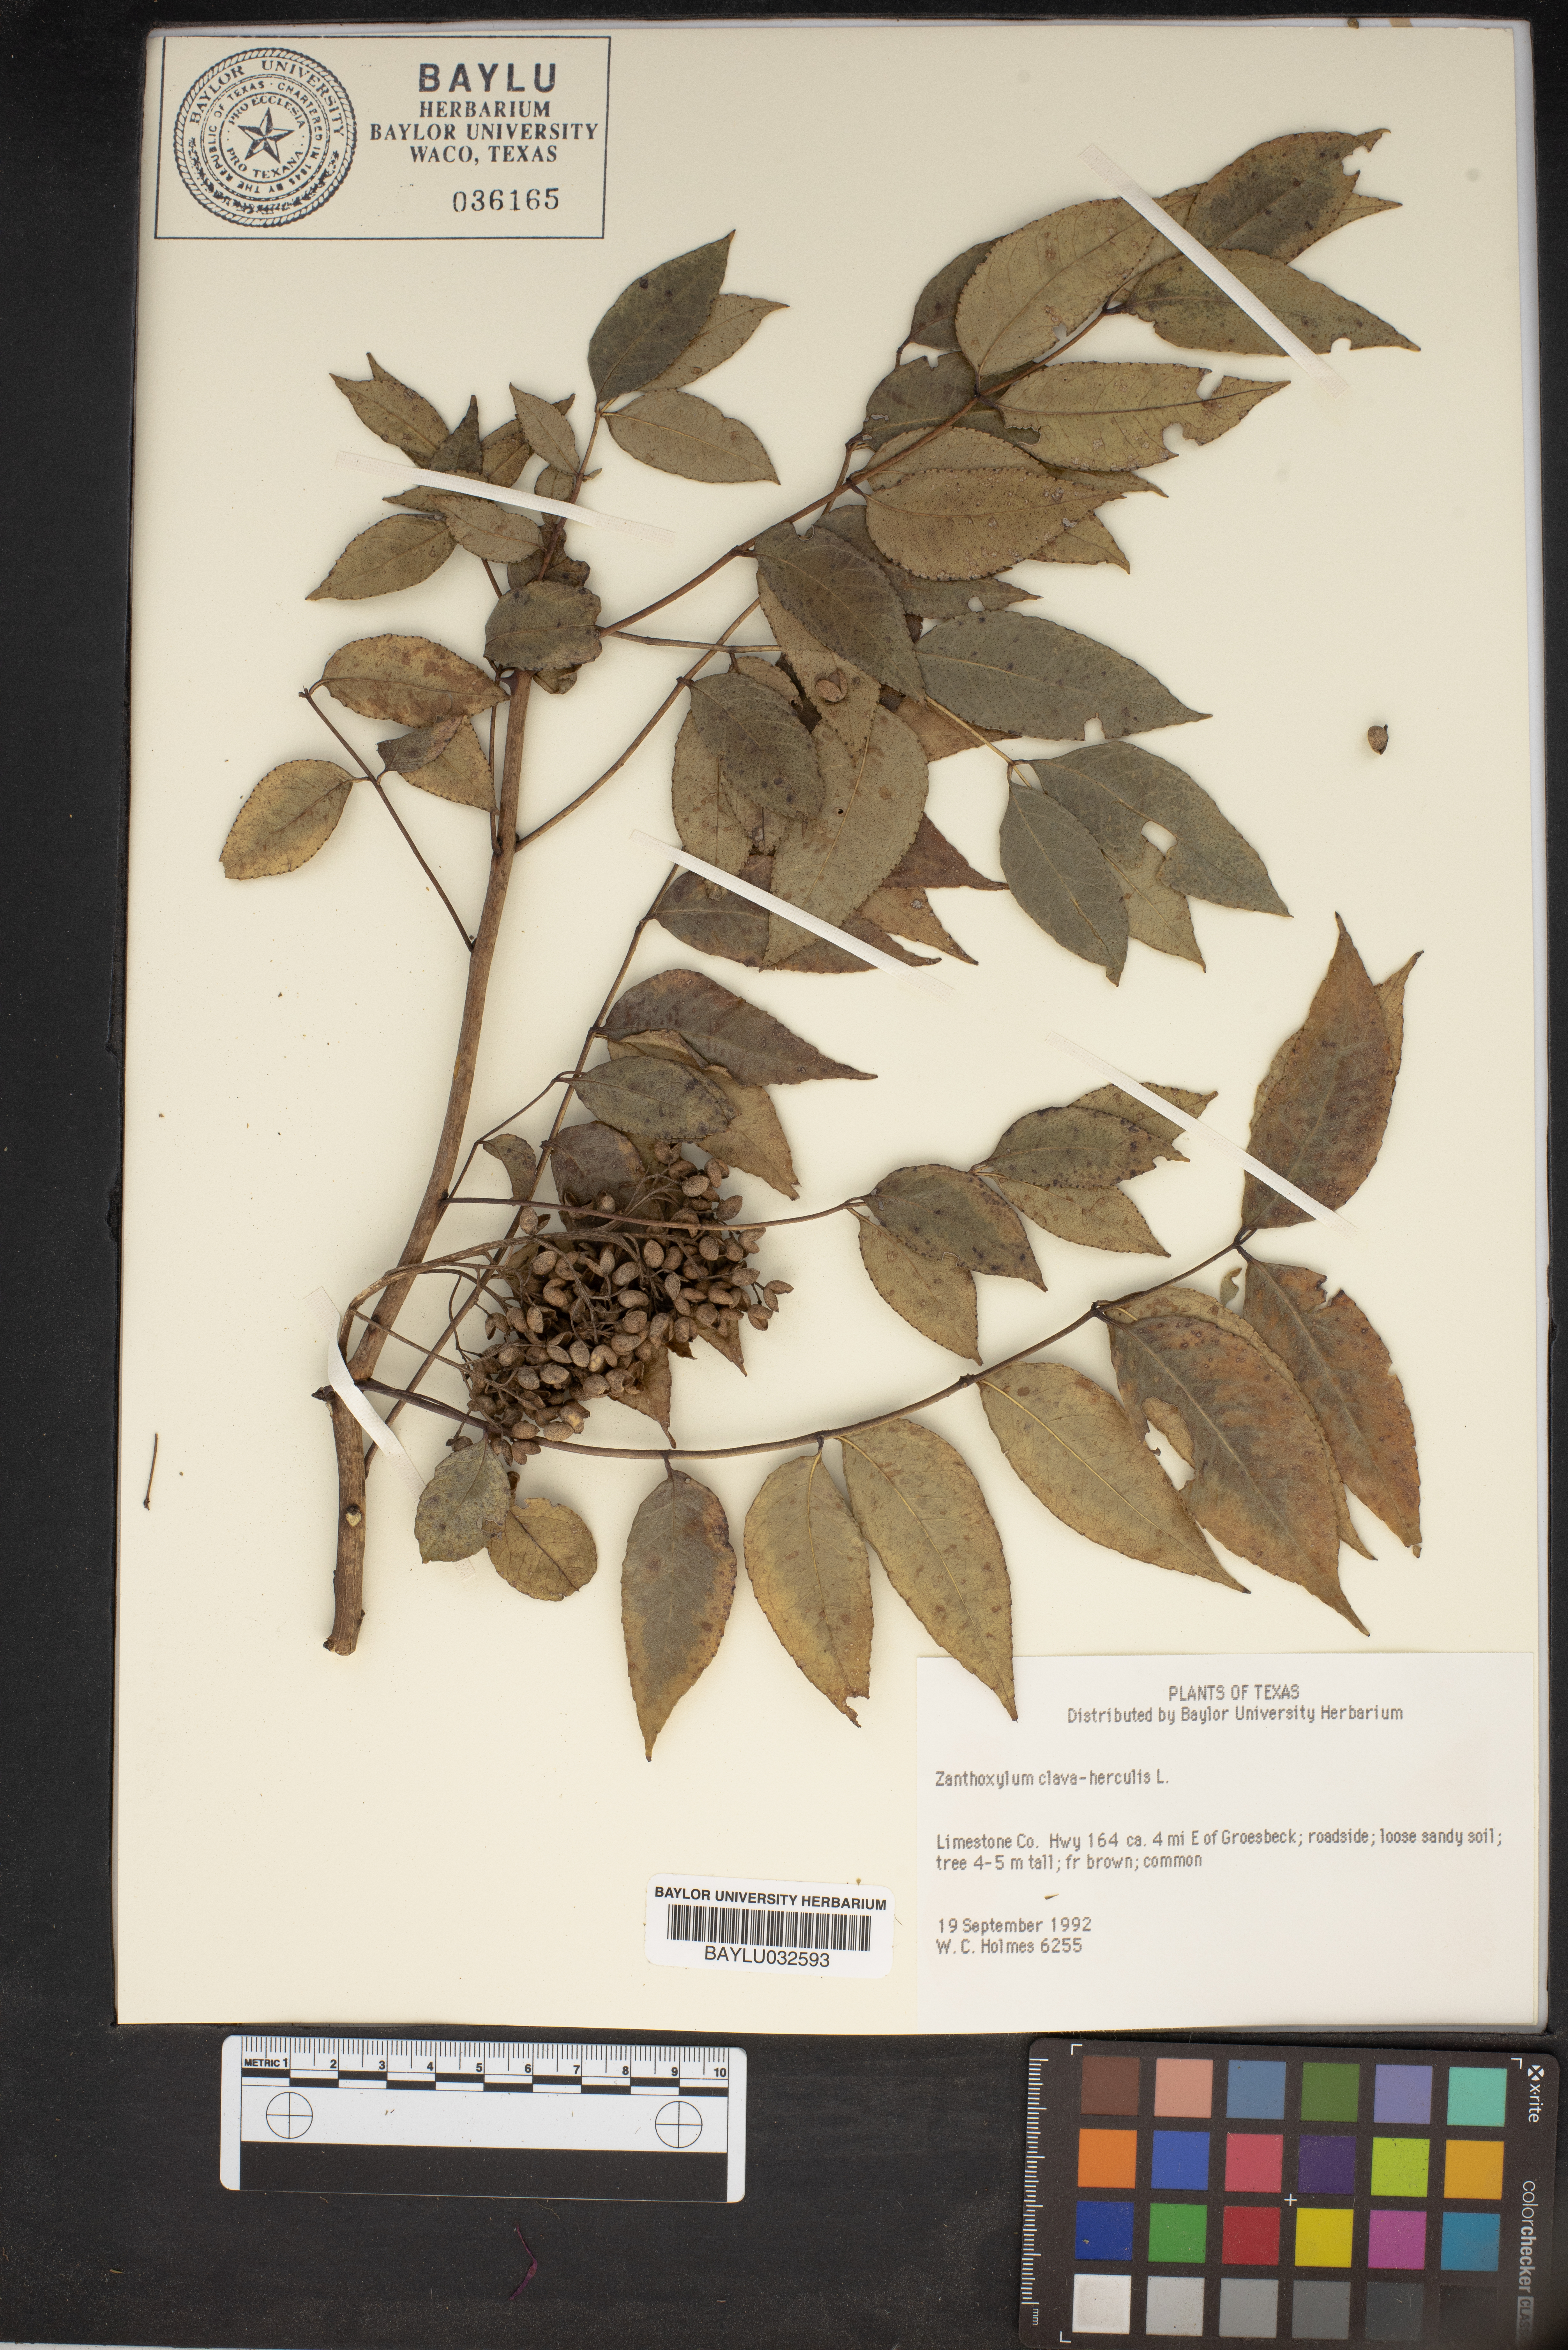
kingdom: Plantae
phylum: Tracheophyta
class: Magnoliopsida
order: Sapindales
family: Rutaceae
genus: Zanthoxylum
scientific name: Zanthoxylum avicennae
